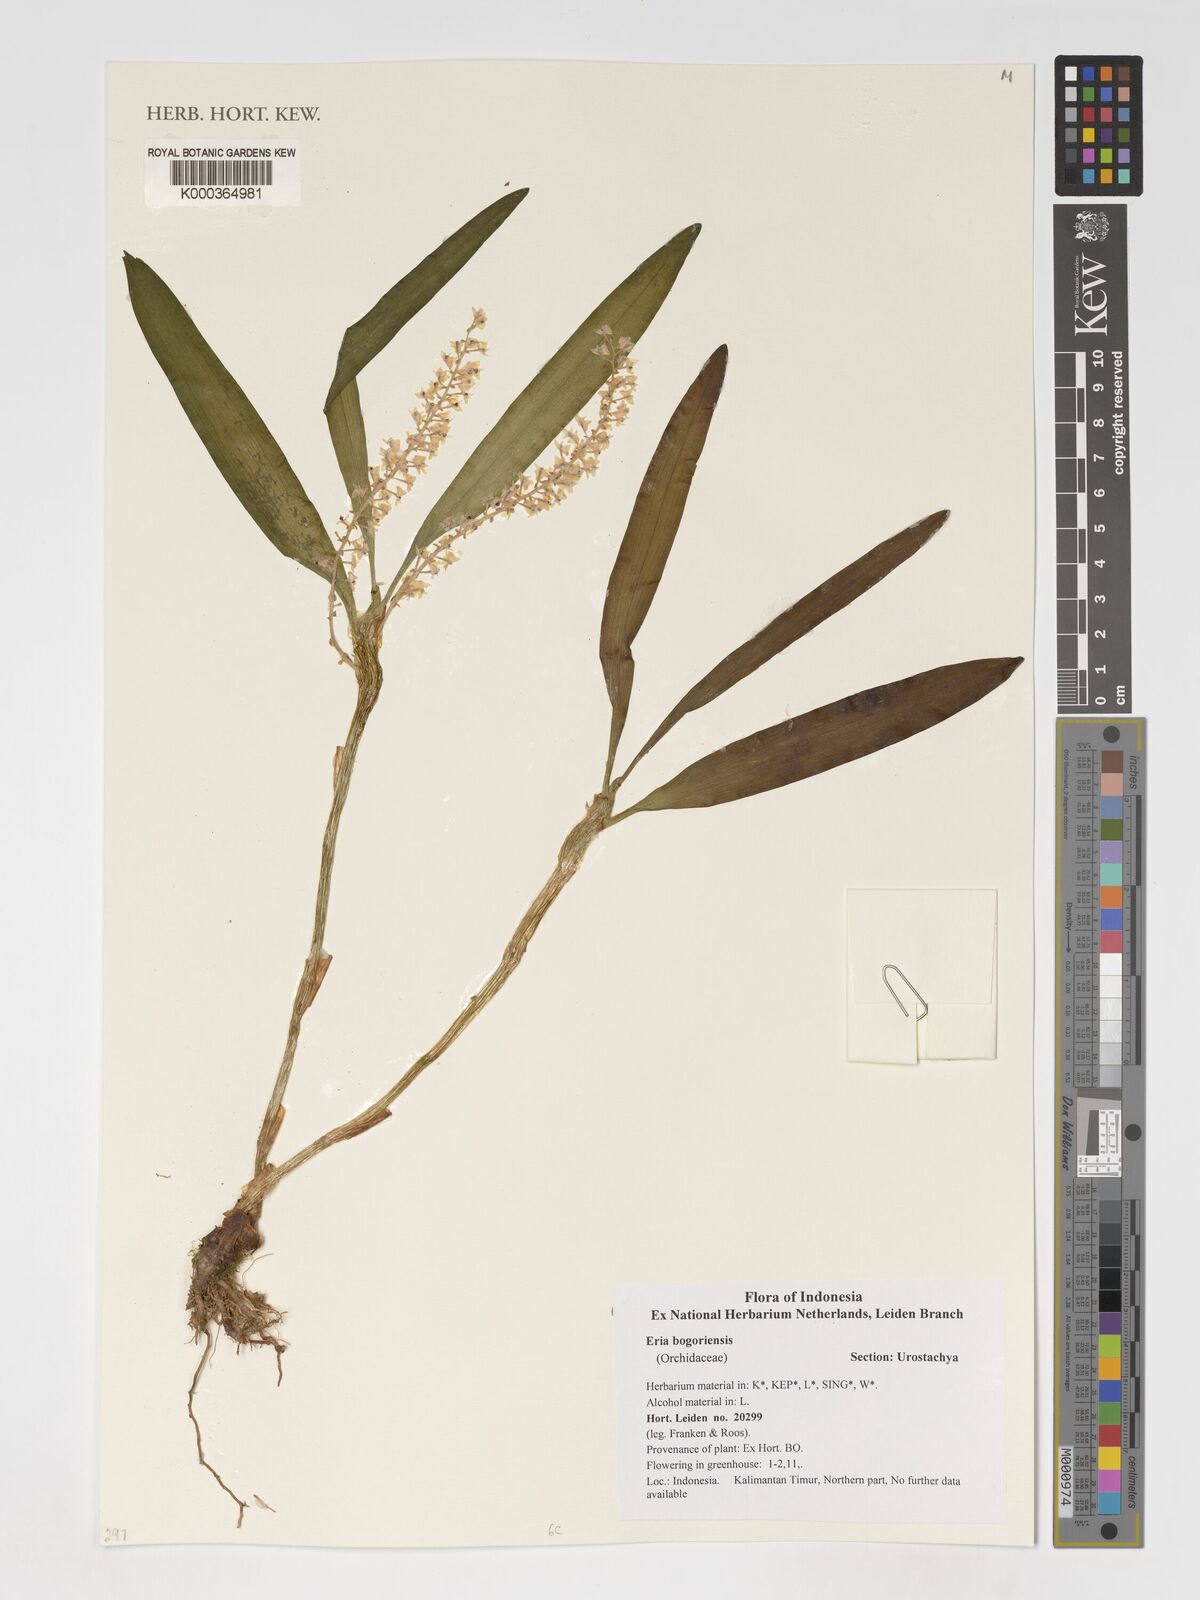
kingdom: Plantae
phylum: Tracheophyta
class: Liliopsida
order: Asparagales
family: Orchidaceae
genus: Pinalia
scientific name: Pinalia bogoriensis
